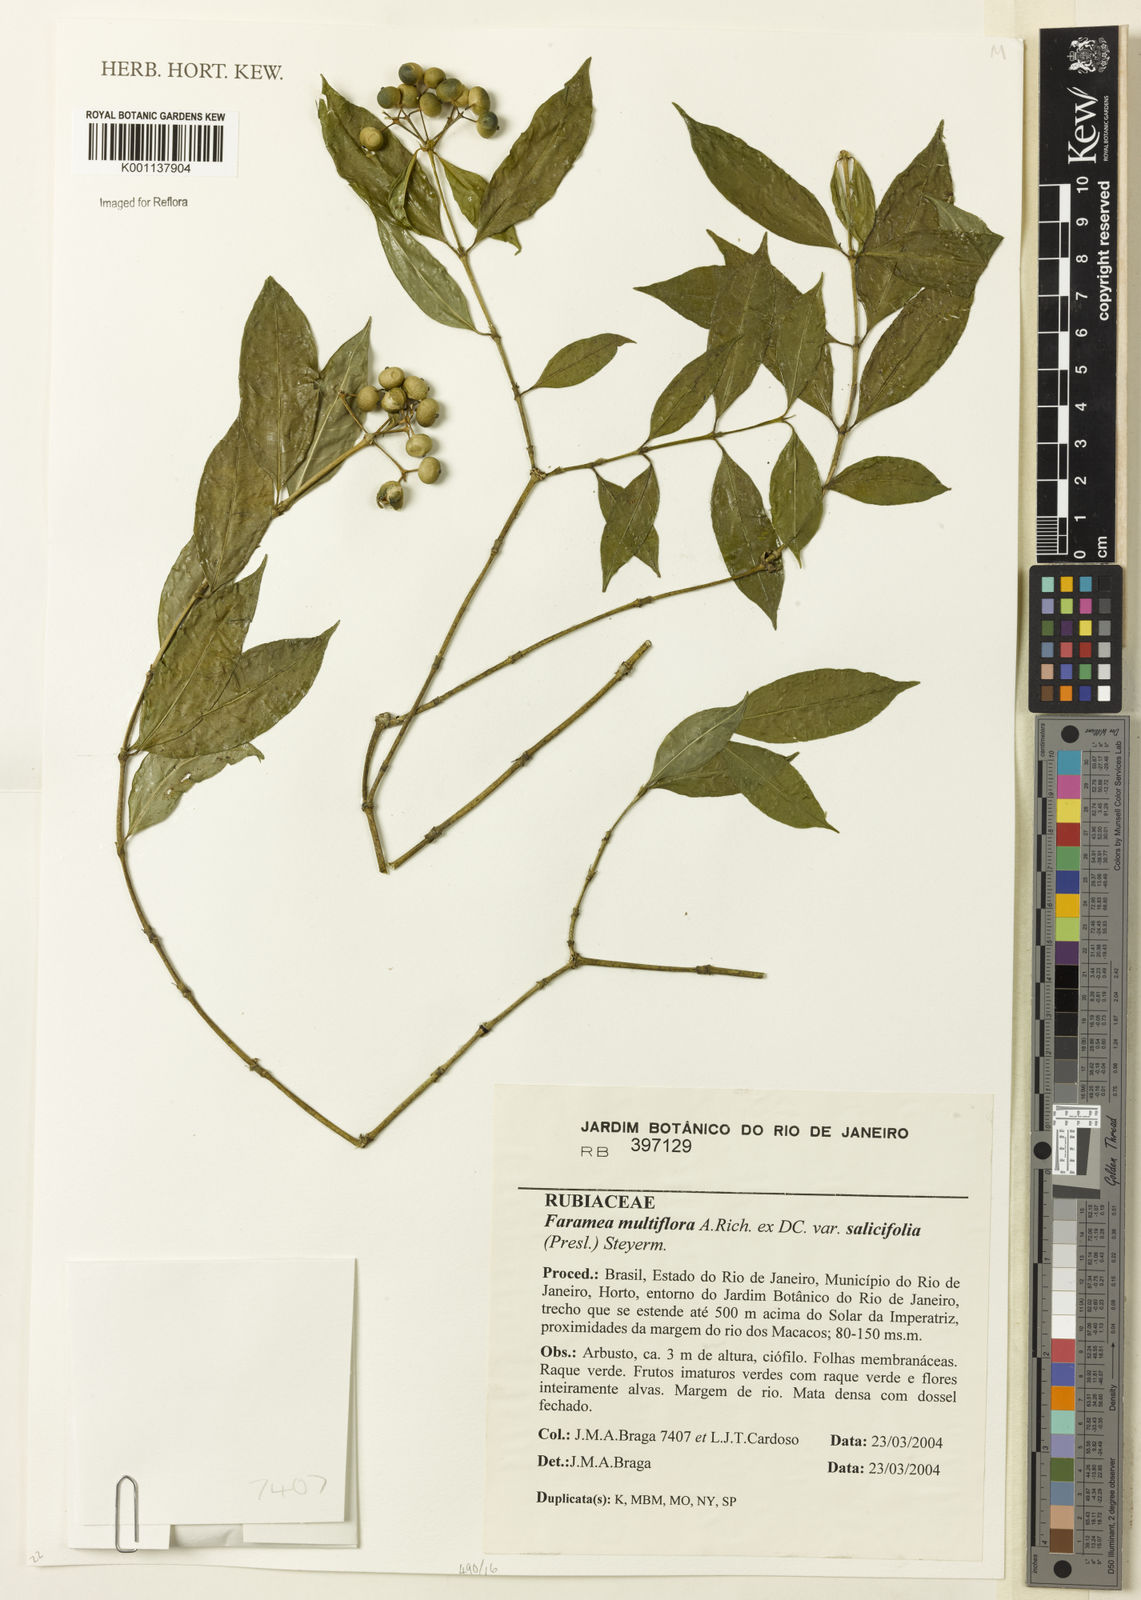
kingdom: Plantae
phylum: Tracheophyta
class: Magnoliopsida
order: Gentianales
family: Rubiaceae
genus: Faramea
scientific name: Faramea multiflora
